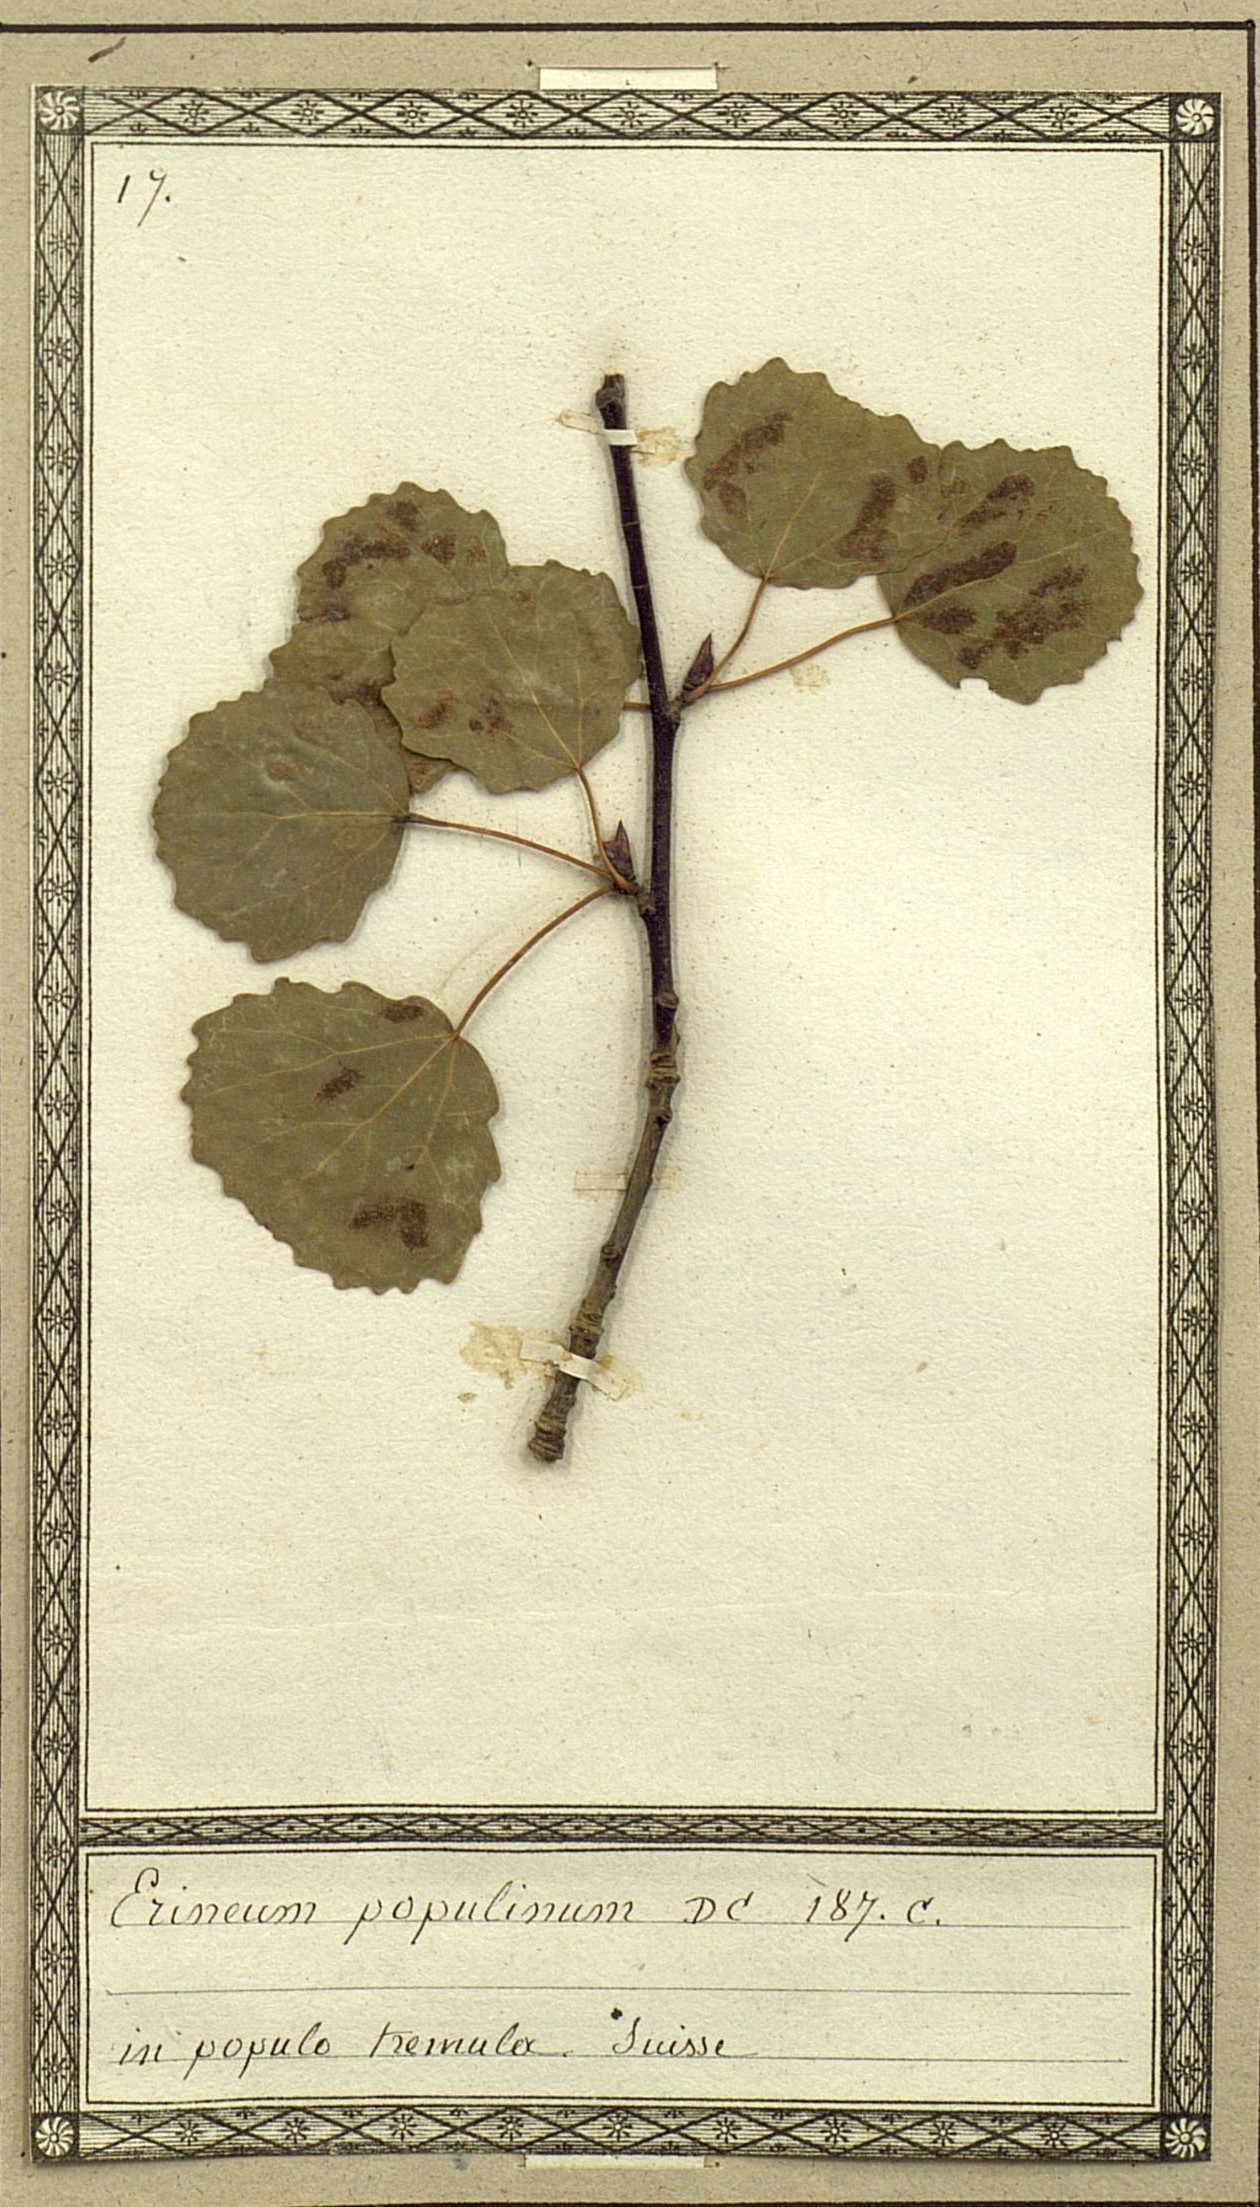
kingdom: Fungi
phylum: Ascomycota
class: Taphrinomycetes
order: Taphrinales
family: Taphrinaceae
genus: Taphrina
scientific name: Taphrina populina
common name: Poplar leaf curl
